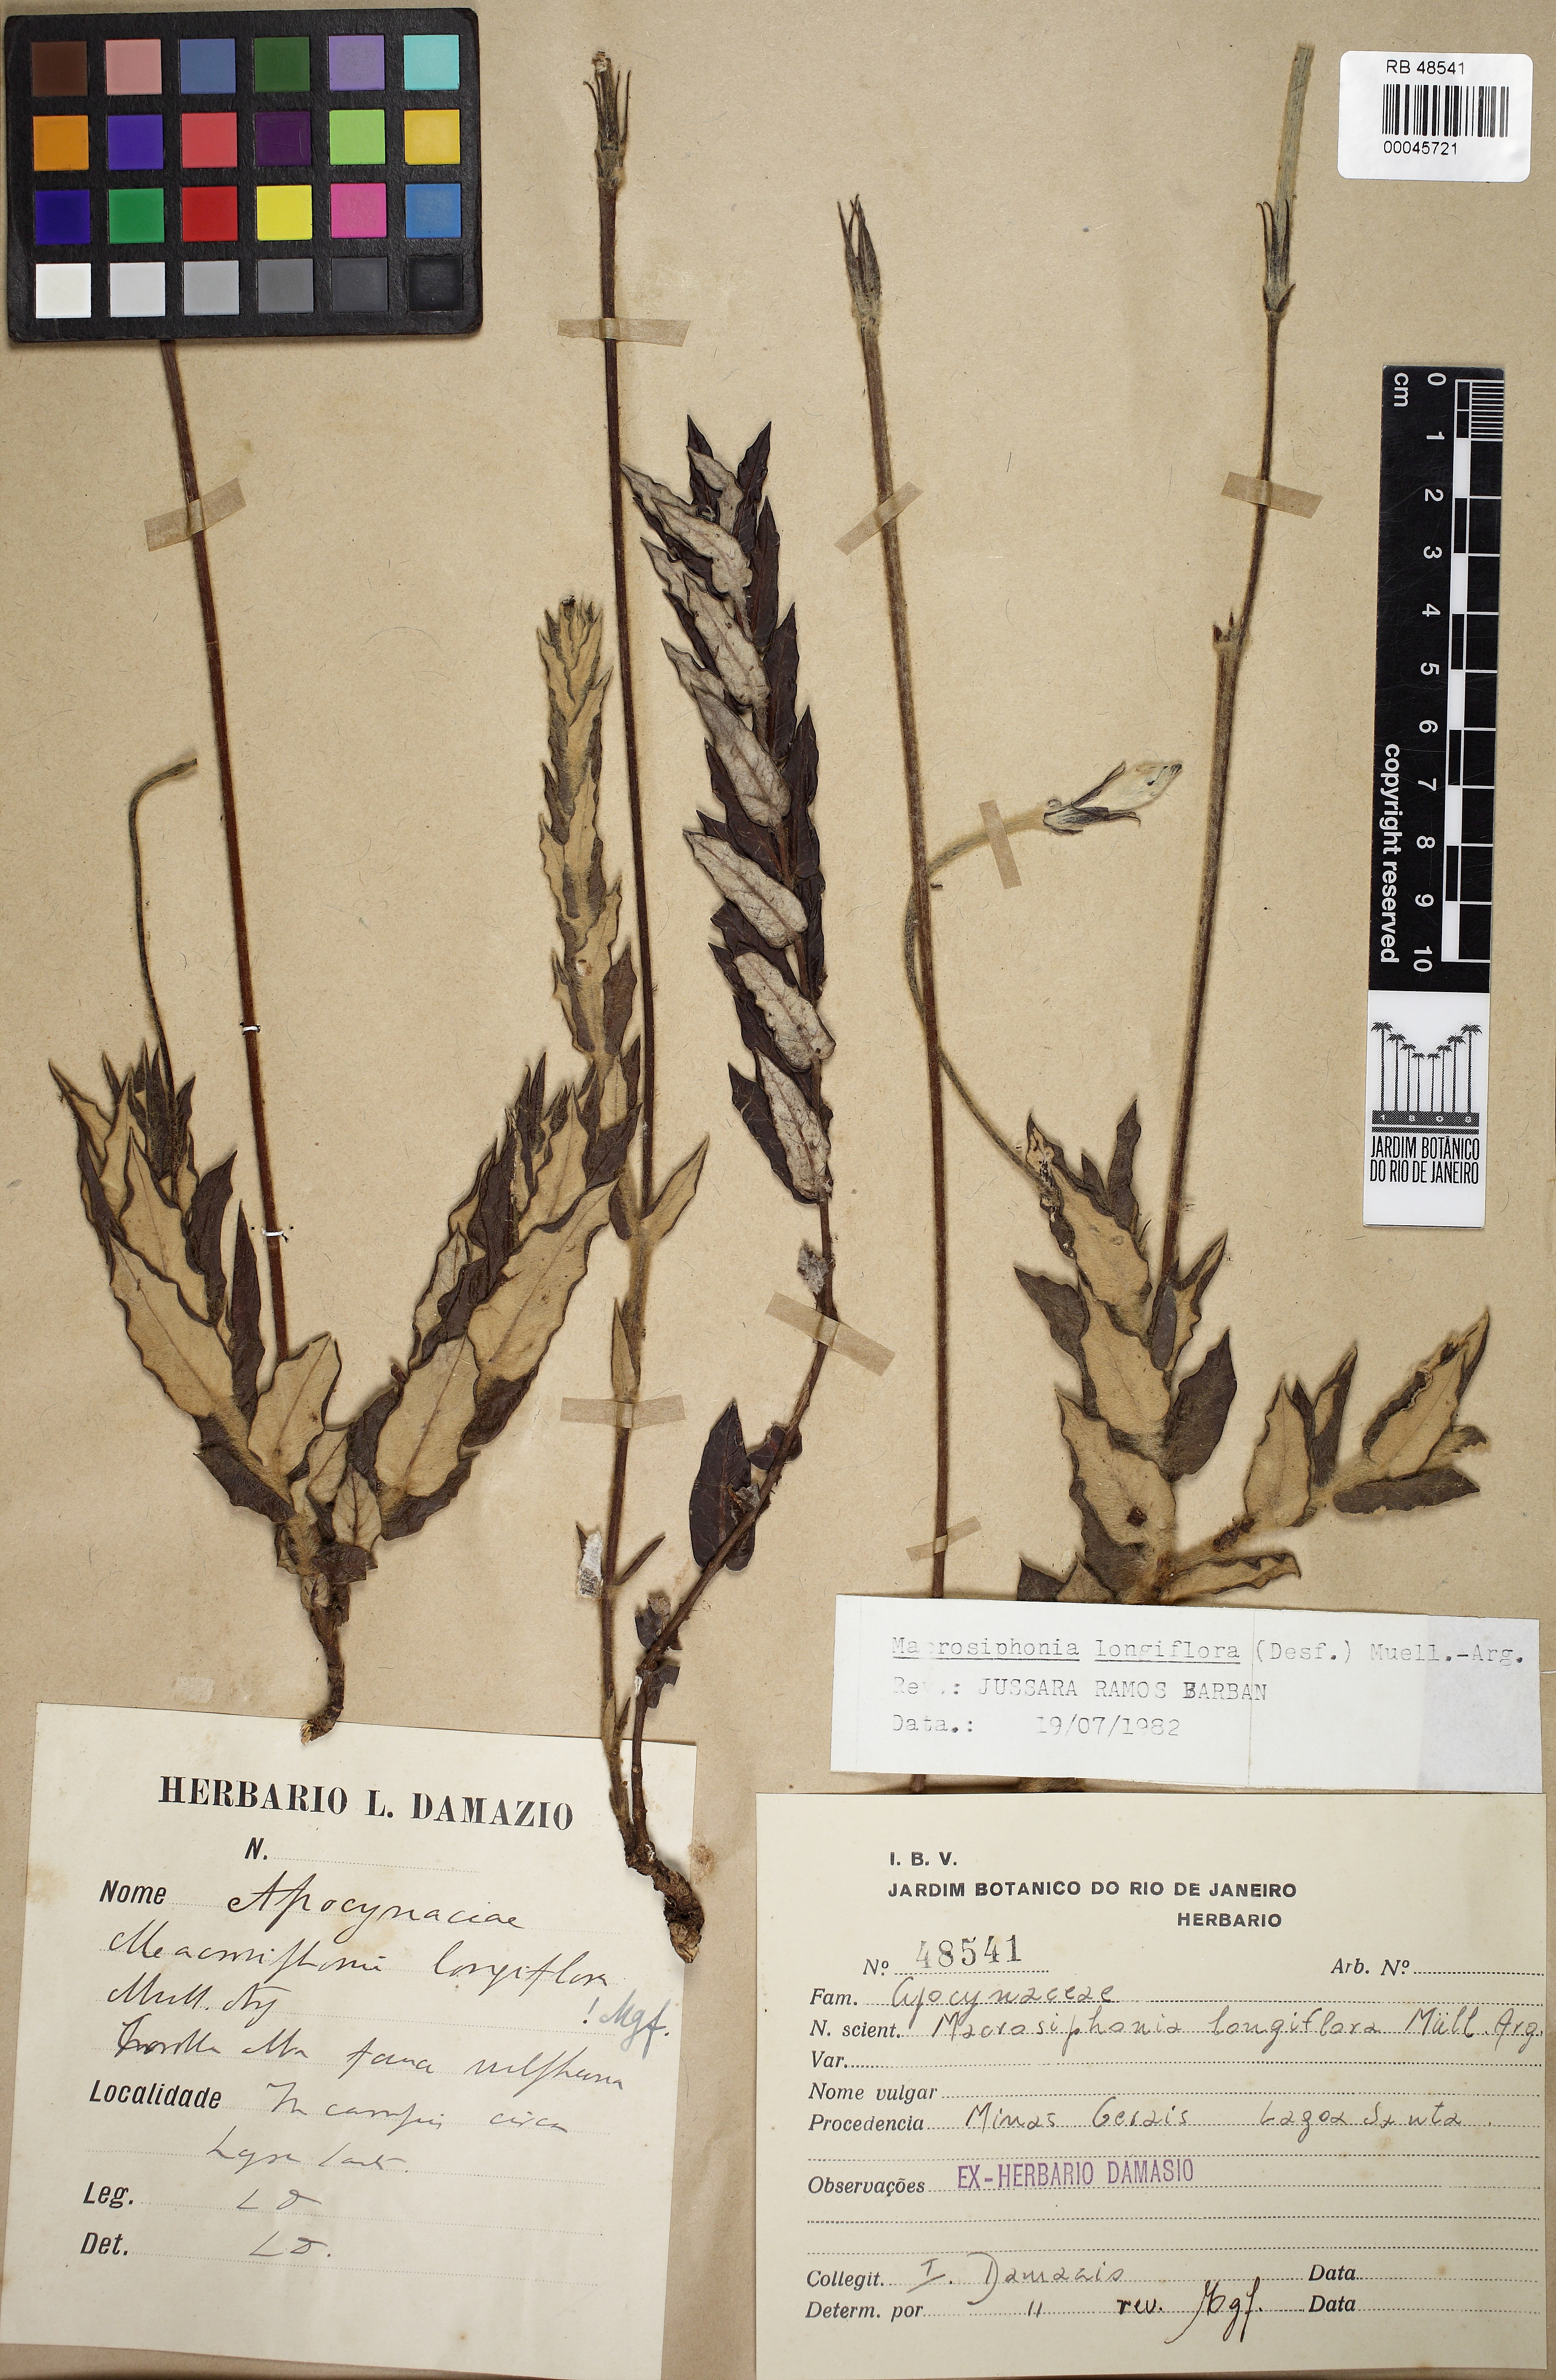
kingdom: Plantae
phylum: Tracheophyta
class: Magnoliopsida
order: Gentianales
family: Apocynaceae
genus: Mandevilla
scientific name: Mandevilla longiflora
